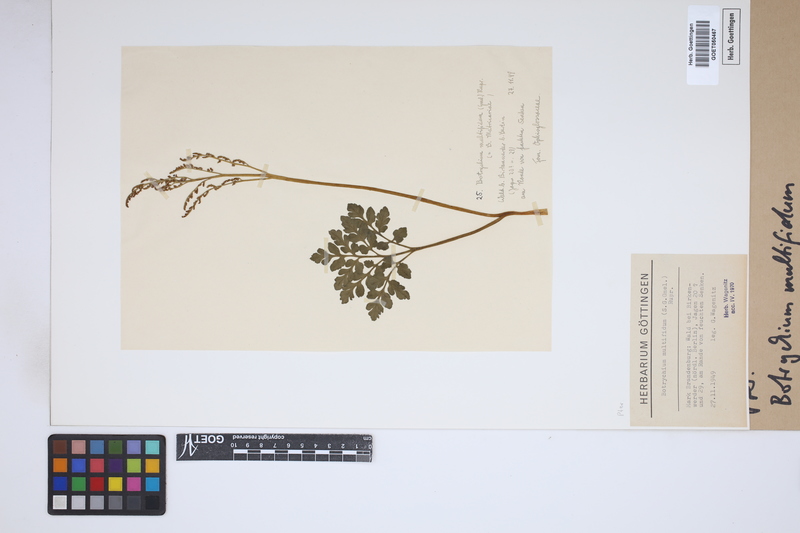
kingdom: Plantae
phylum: Tracheophyta
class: Polypodiopsida
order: Ophioglossales
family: Ophioglossaceae
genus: Sceptridium
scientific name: Sceptridium multifidum
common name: Leathery grape fern
